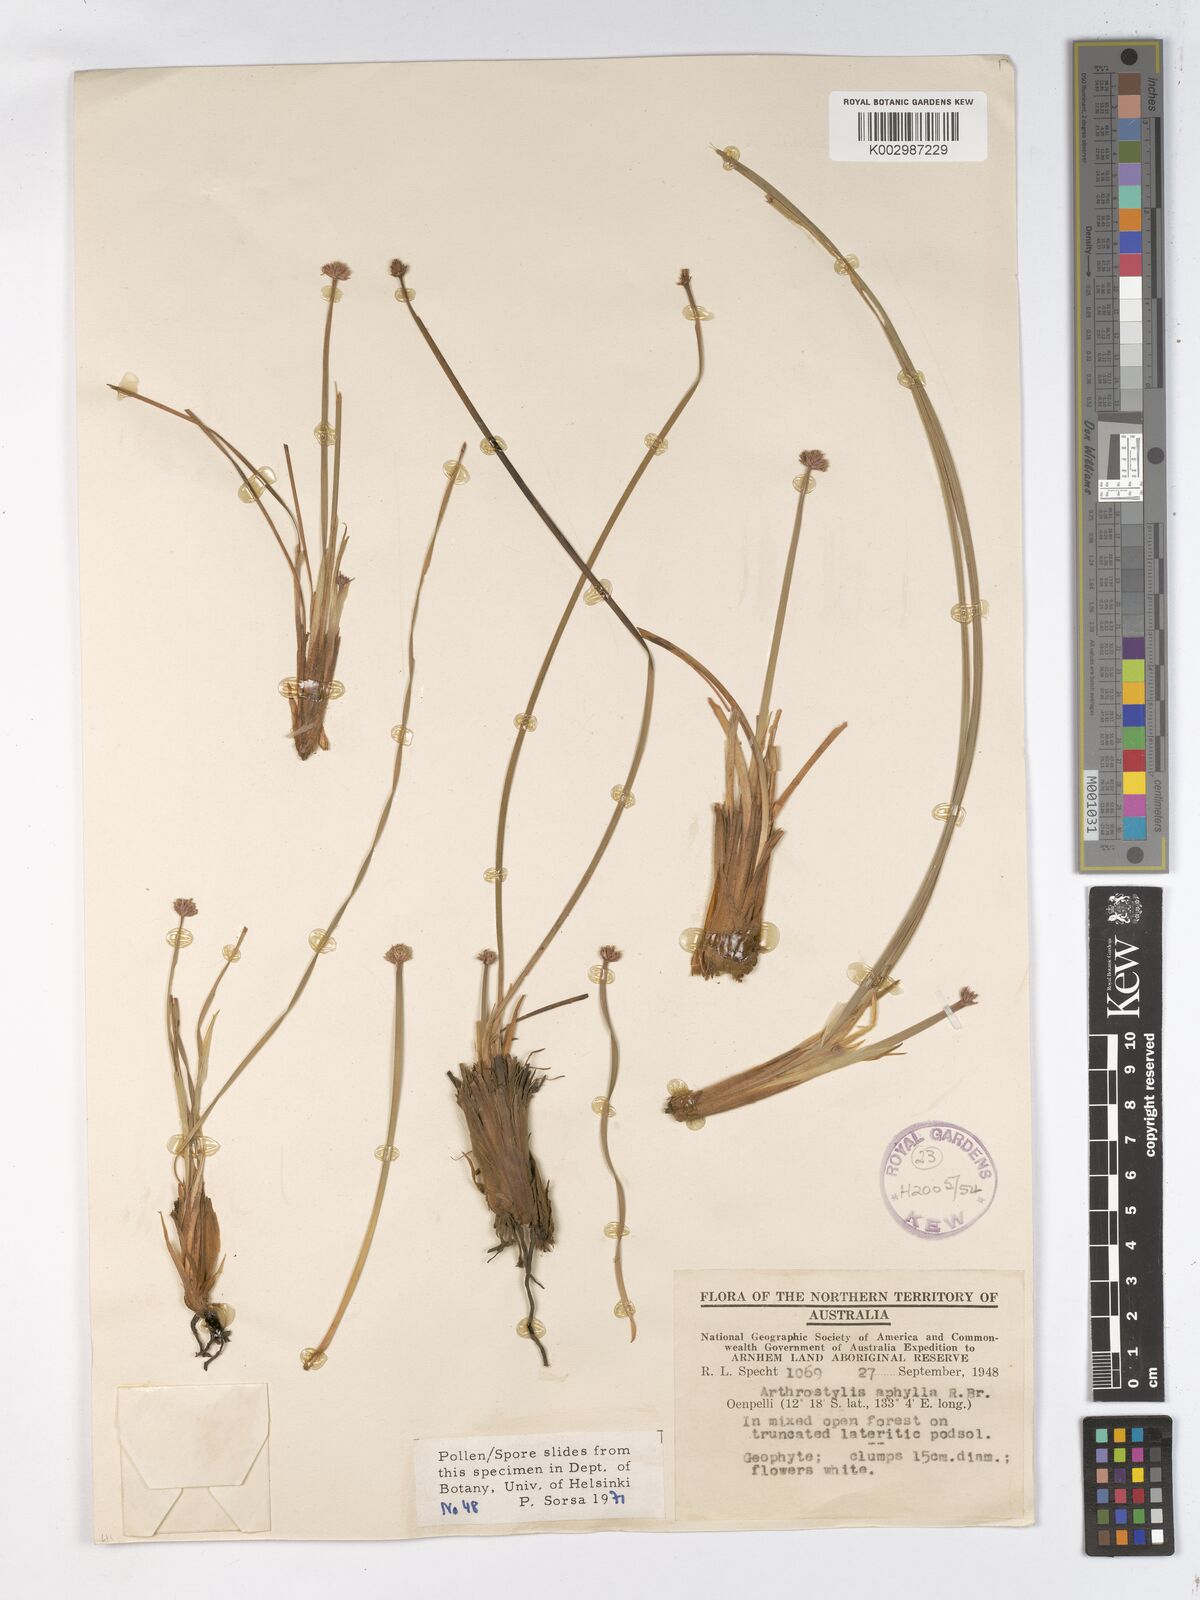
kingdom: Plantae
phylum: Tracheophyta
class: Liliopsida
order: Poales
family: Cyperaceae
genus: Arthrostylis
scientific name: Arthrostylis aphylla
